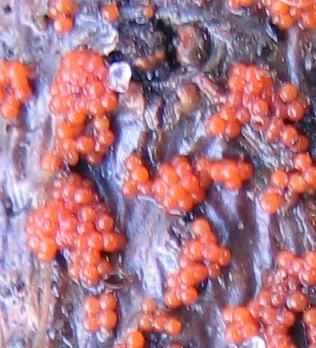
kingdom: Fungi
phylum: Ascomycota
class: Sordariomycetes
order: Hypocreales
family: Nectriaceae
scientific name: Nectriaceae
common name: cinnobersvampfamilien
